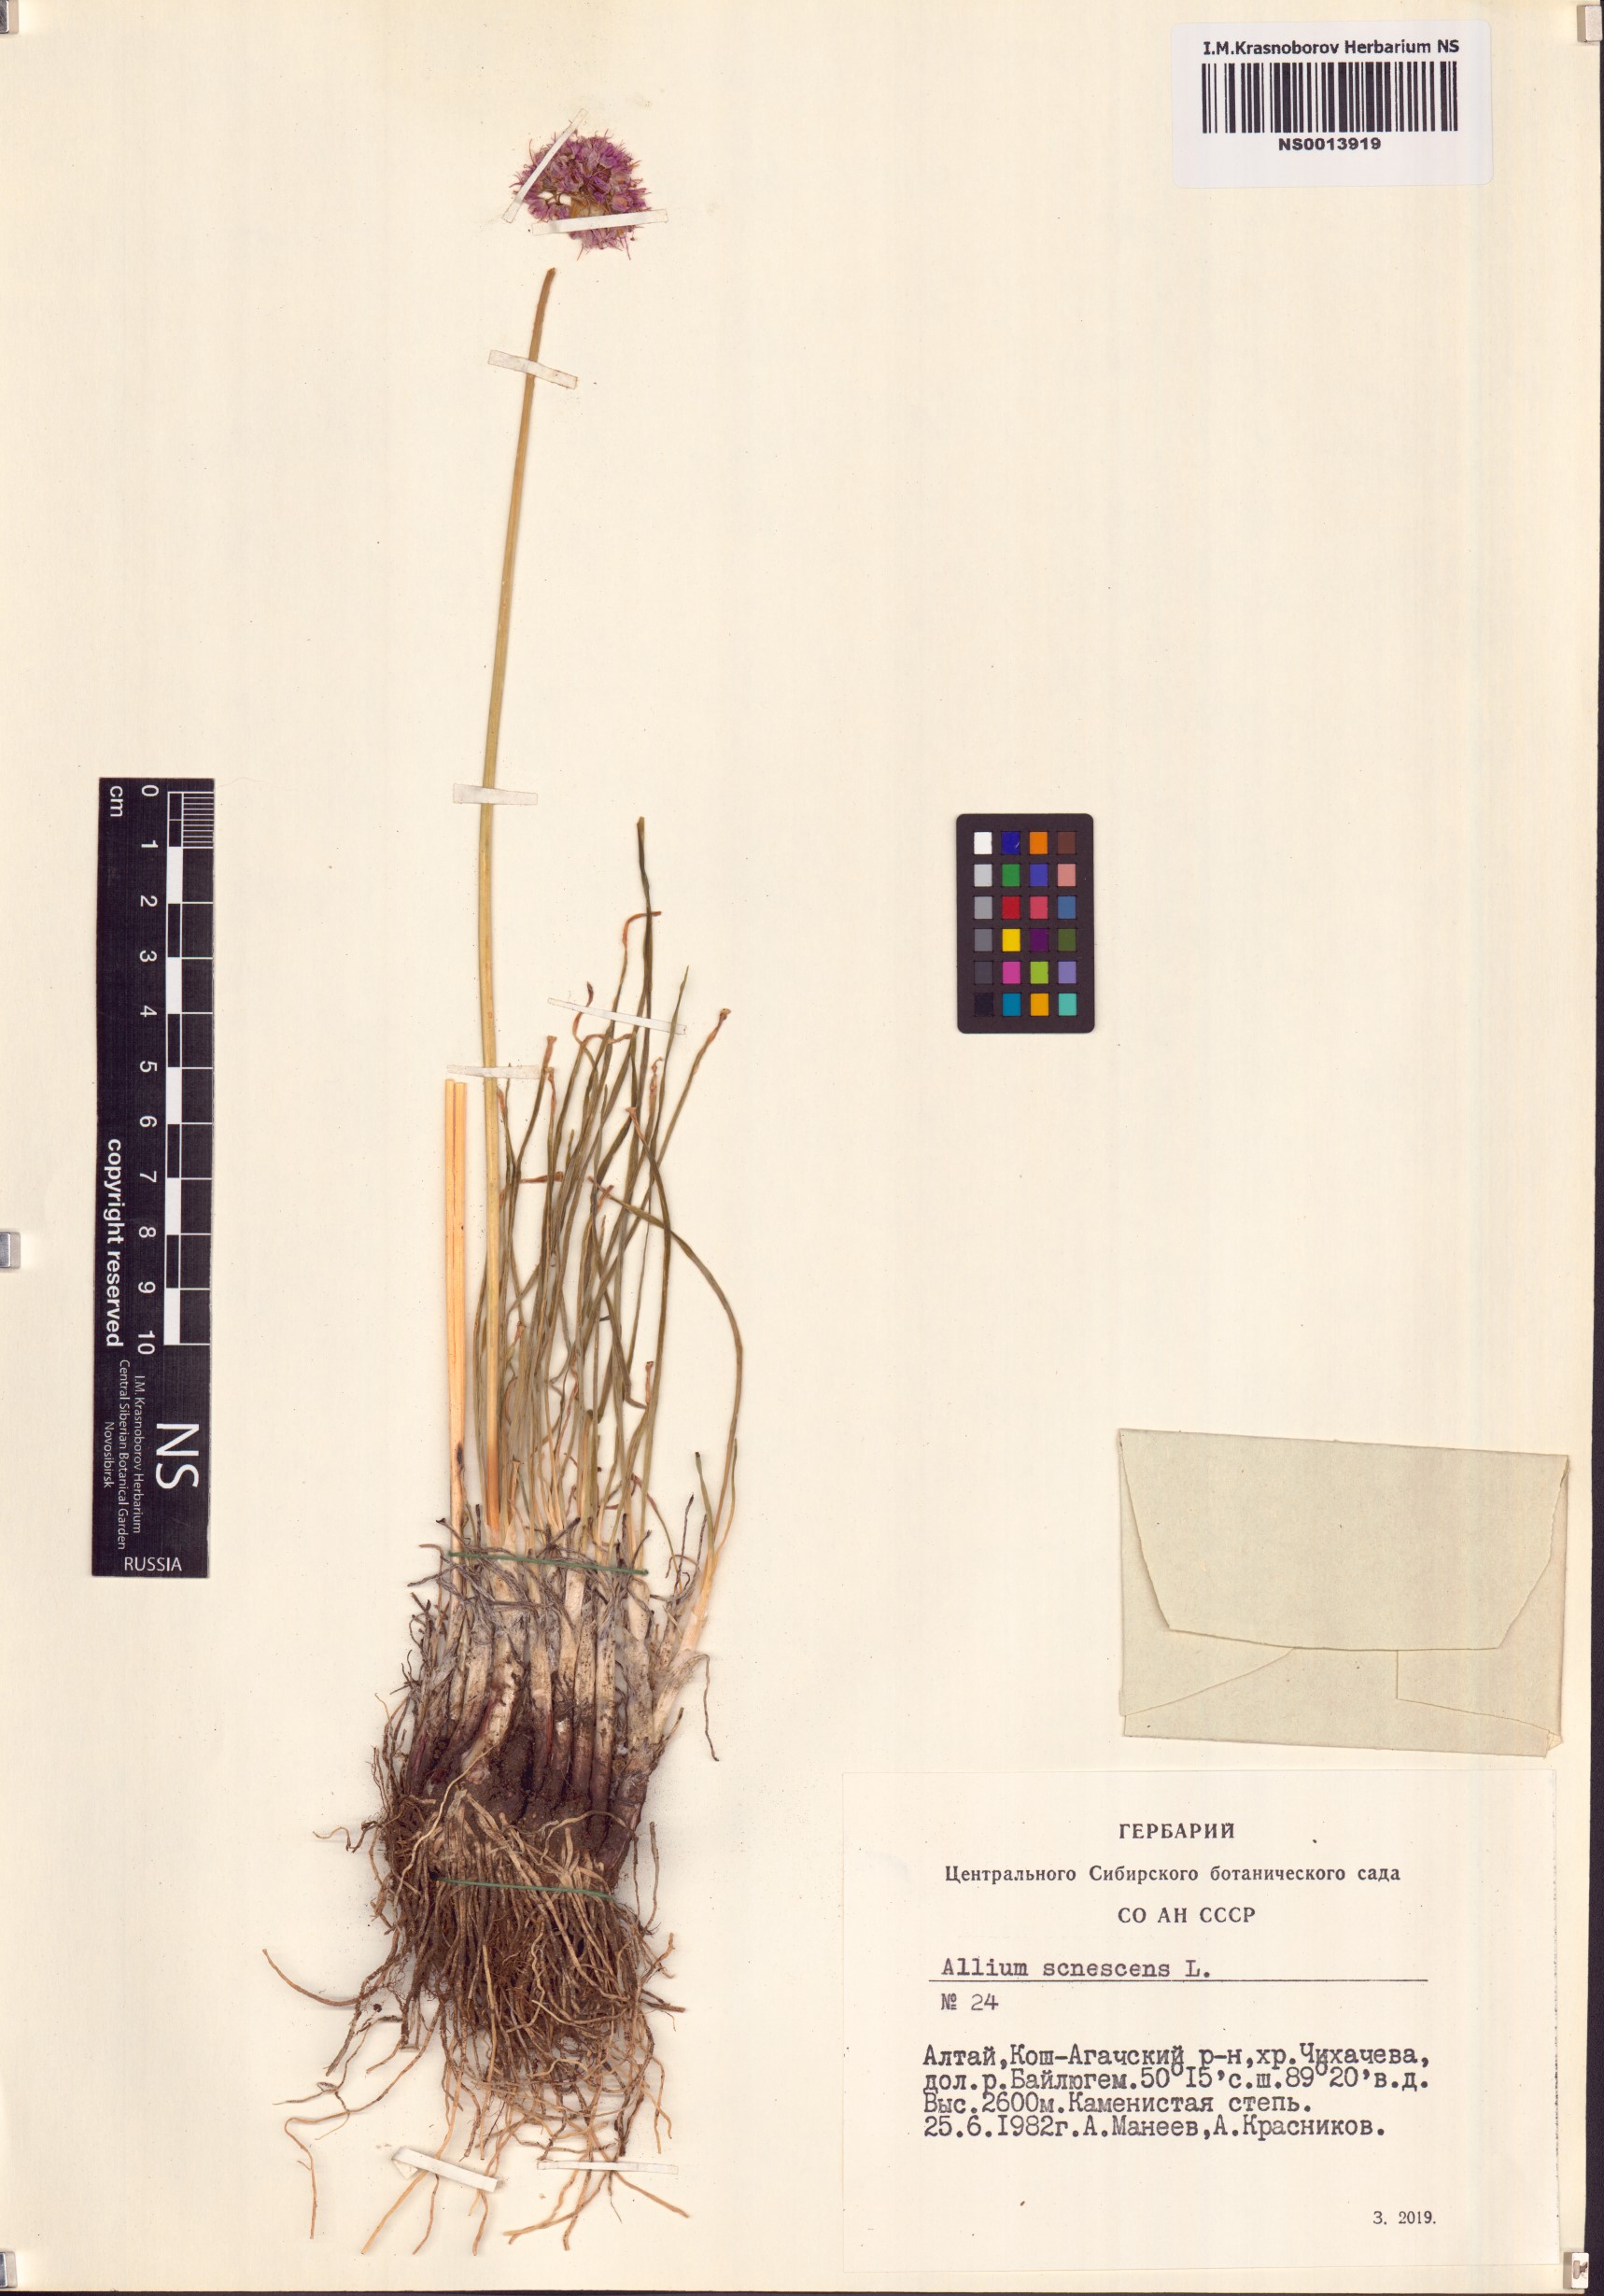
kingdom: Plantae
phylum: Tracheophyta
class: Liliopsida
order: Asparagales
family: Amaryllidaceae
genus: Allium
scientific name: Allium senescens
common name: German garlic
